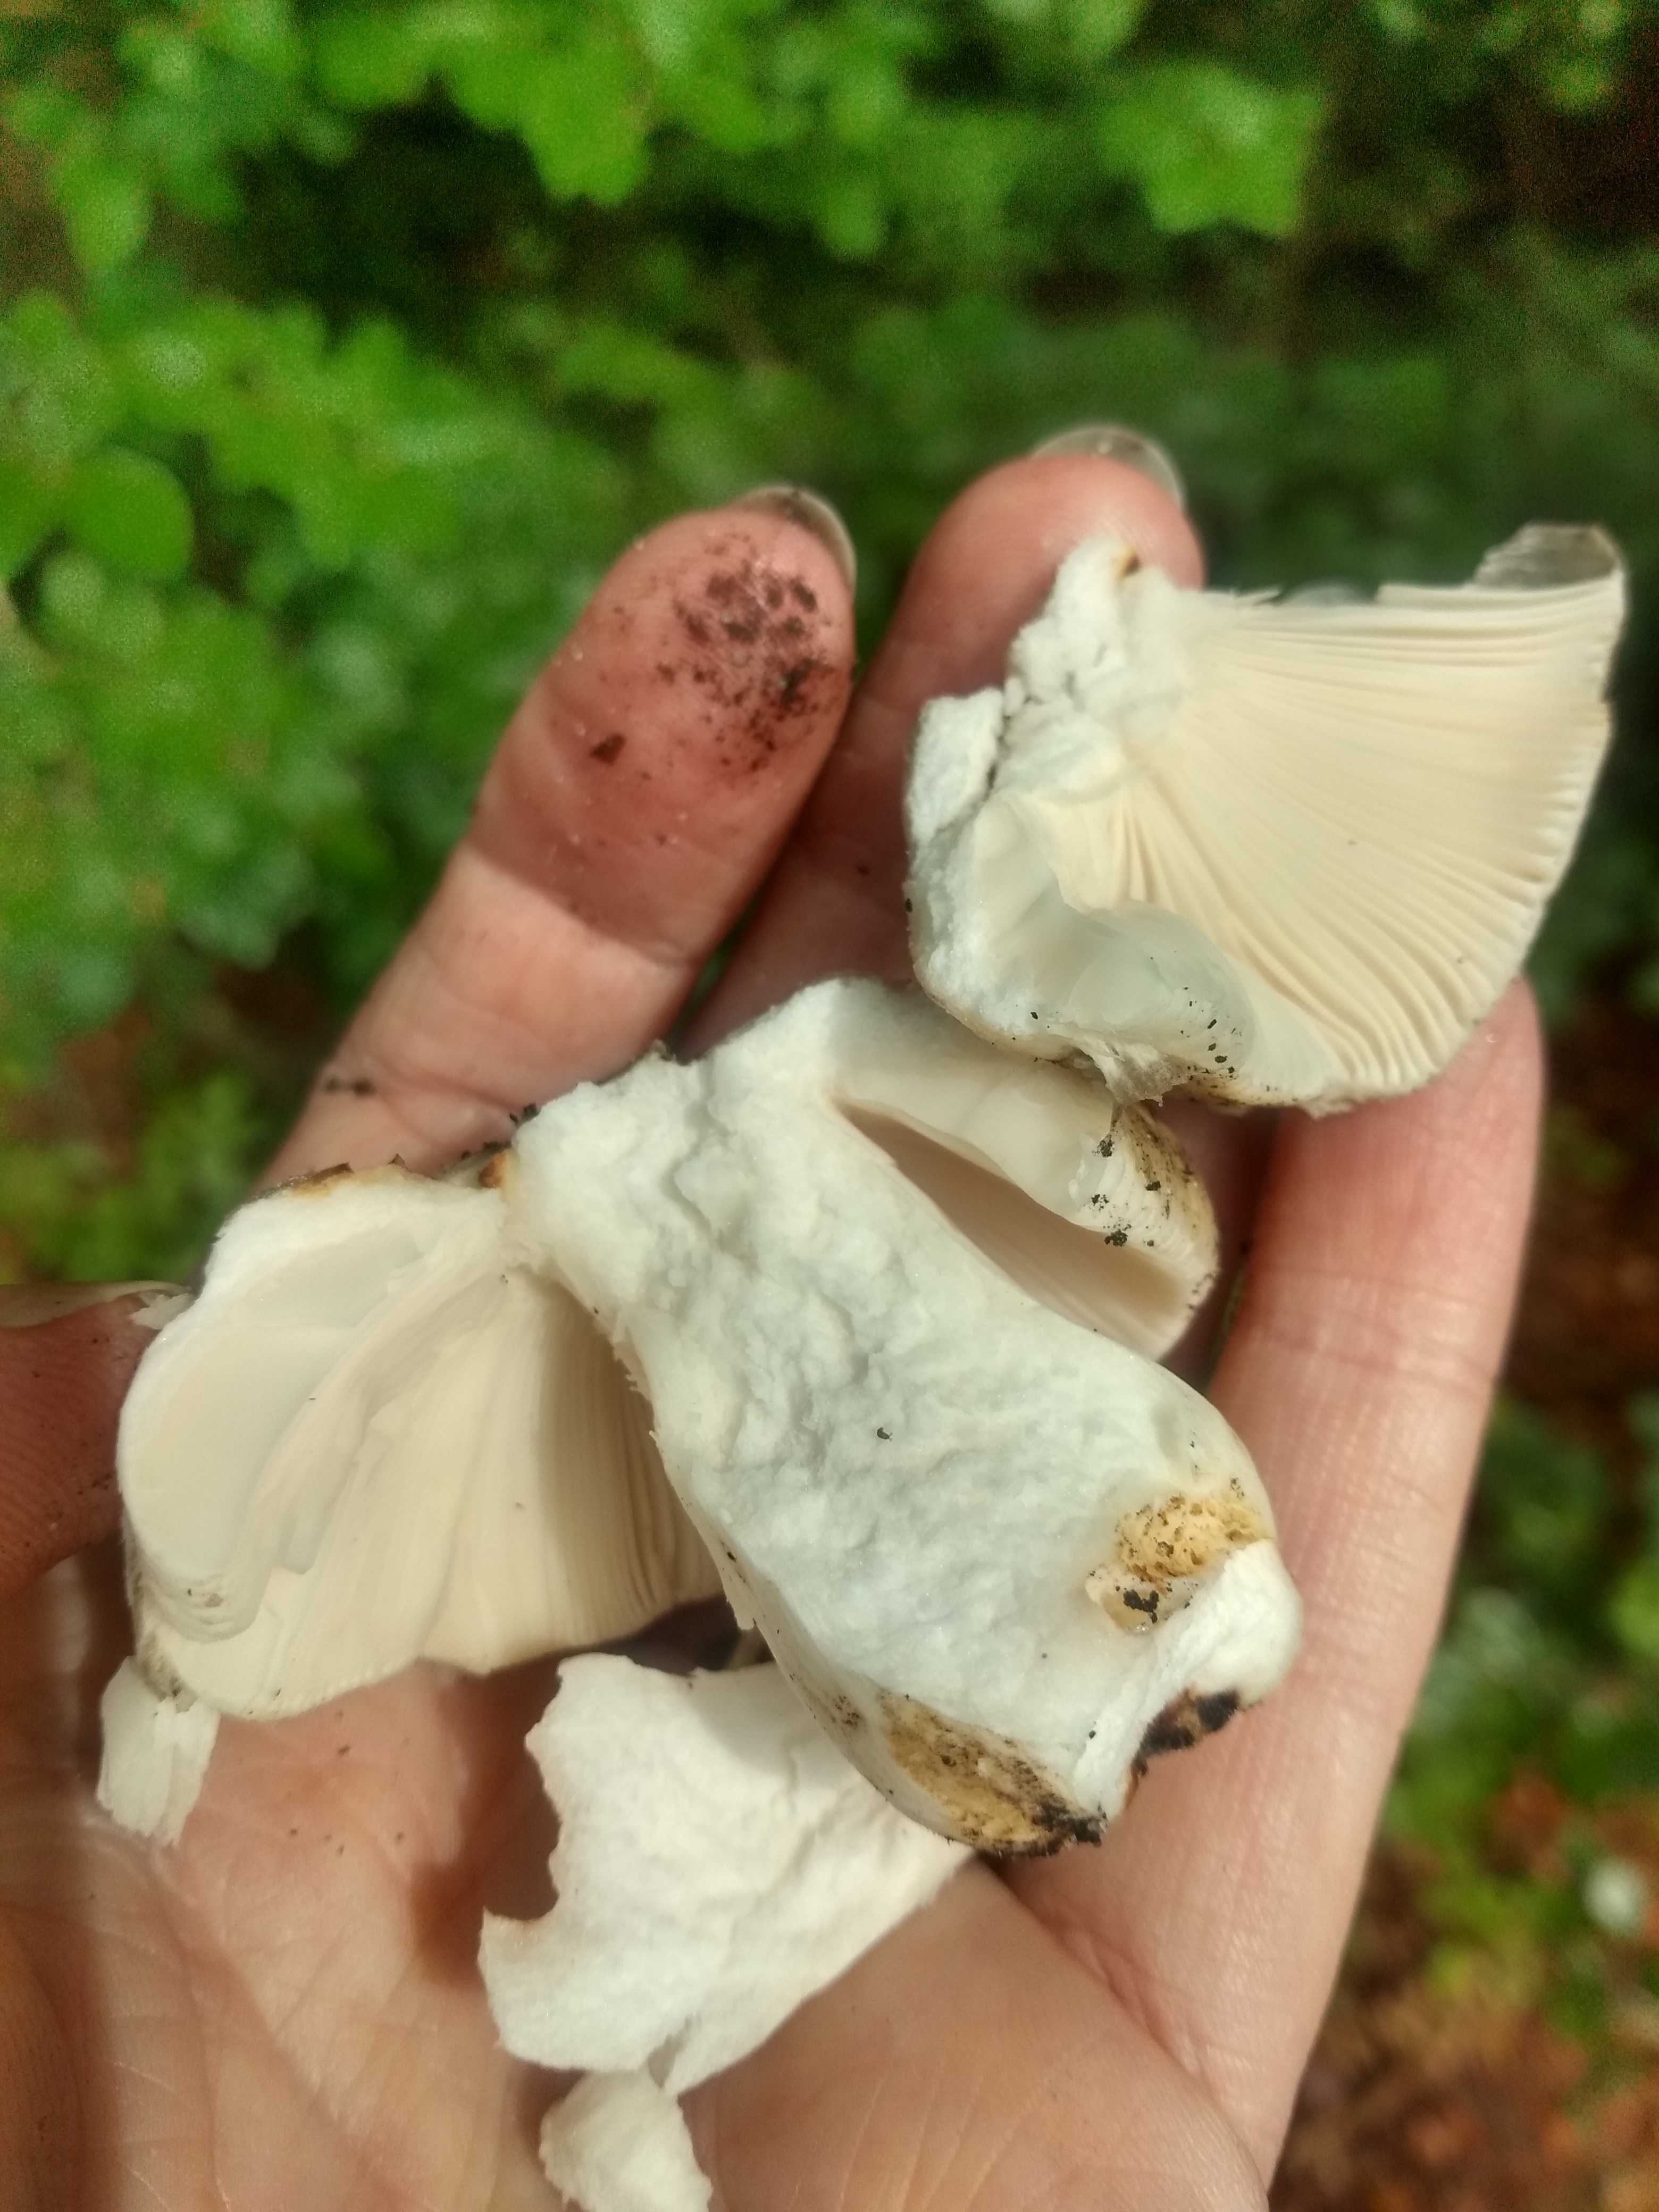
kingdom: Fungi
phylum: Basidiomycota
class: Agaricomycetes
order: Russulales
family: Russulaceae
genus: Russula
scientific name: Russula aeruginea
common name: græsgrøn skørhat
